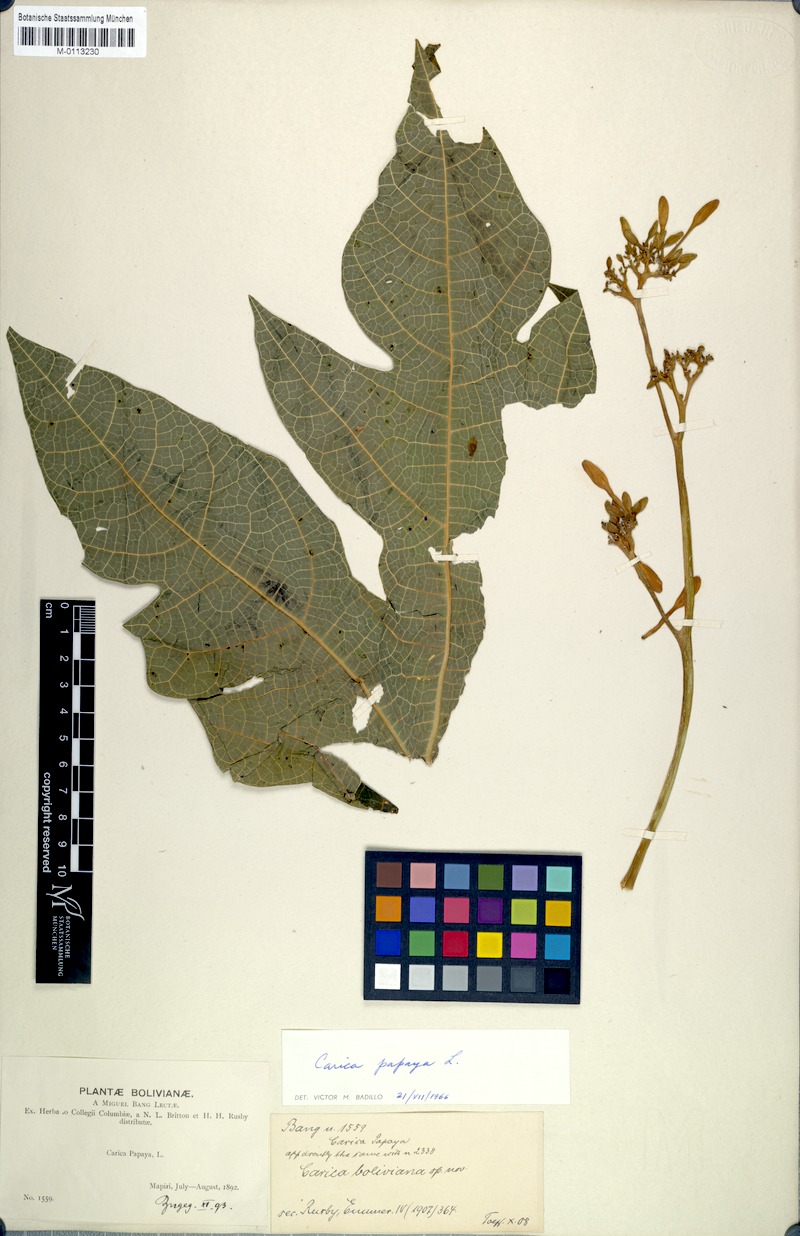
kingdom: Plantae
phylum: Tracheophyta
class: Magnoliopsida
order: Brassicales
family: Caricaceae
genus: Carica
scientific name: Carica papaya
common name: Papaya
